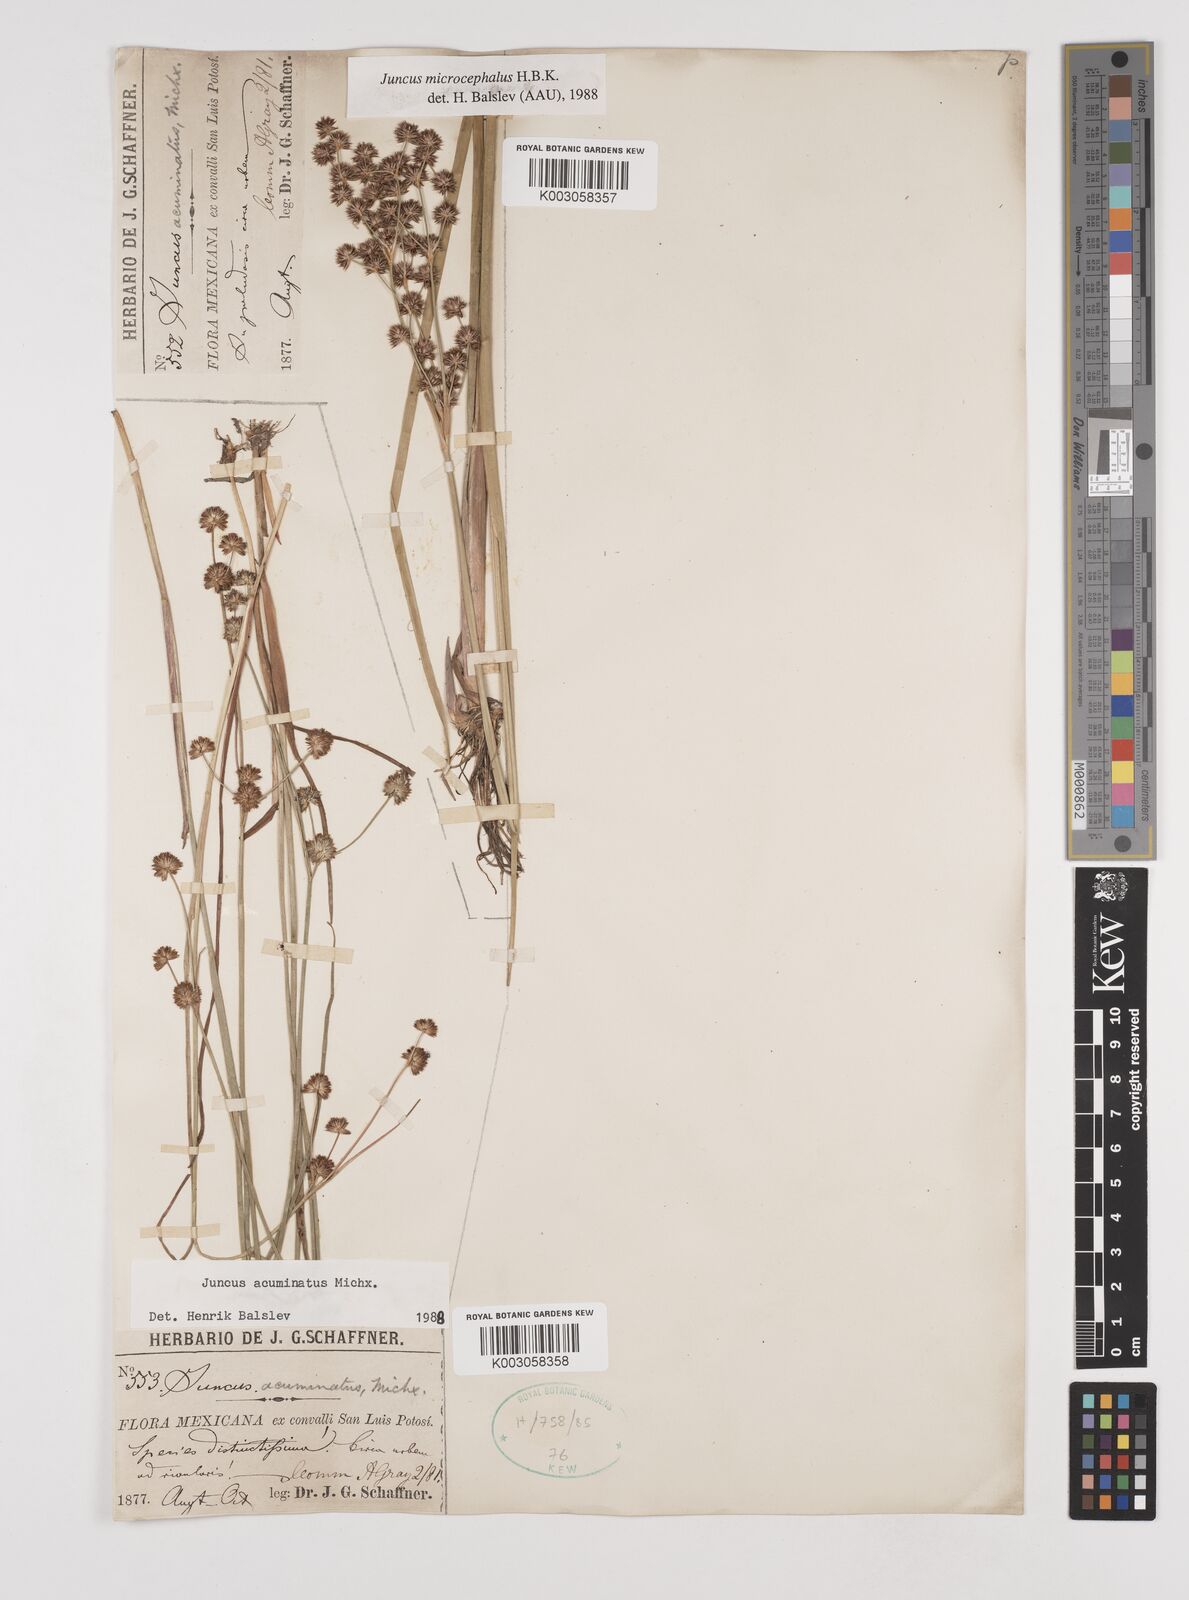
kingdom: Plantae
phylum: Tracheophyta
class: Liliopsida
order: Poales
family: Juncaceae
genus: Juncus
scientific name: Juncus acuminatus
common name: Knotty-leaved rush
